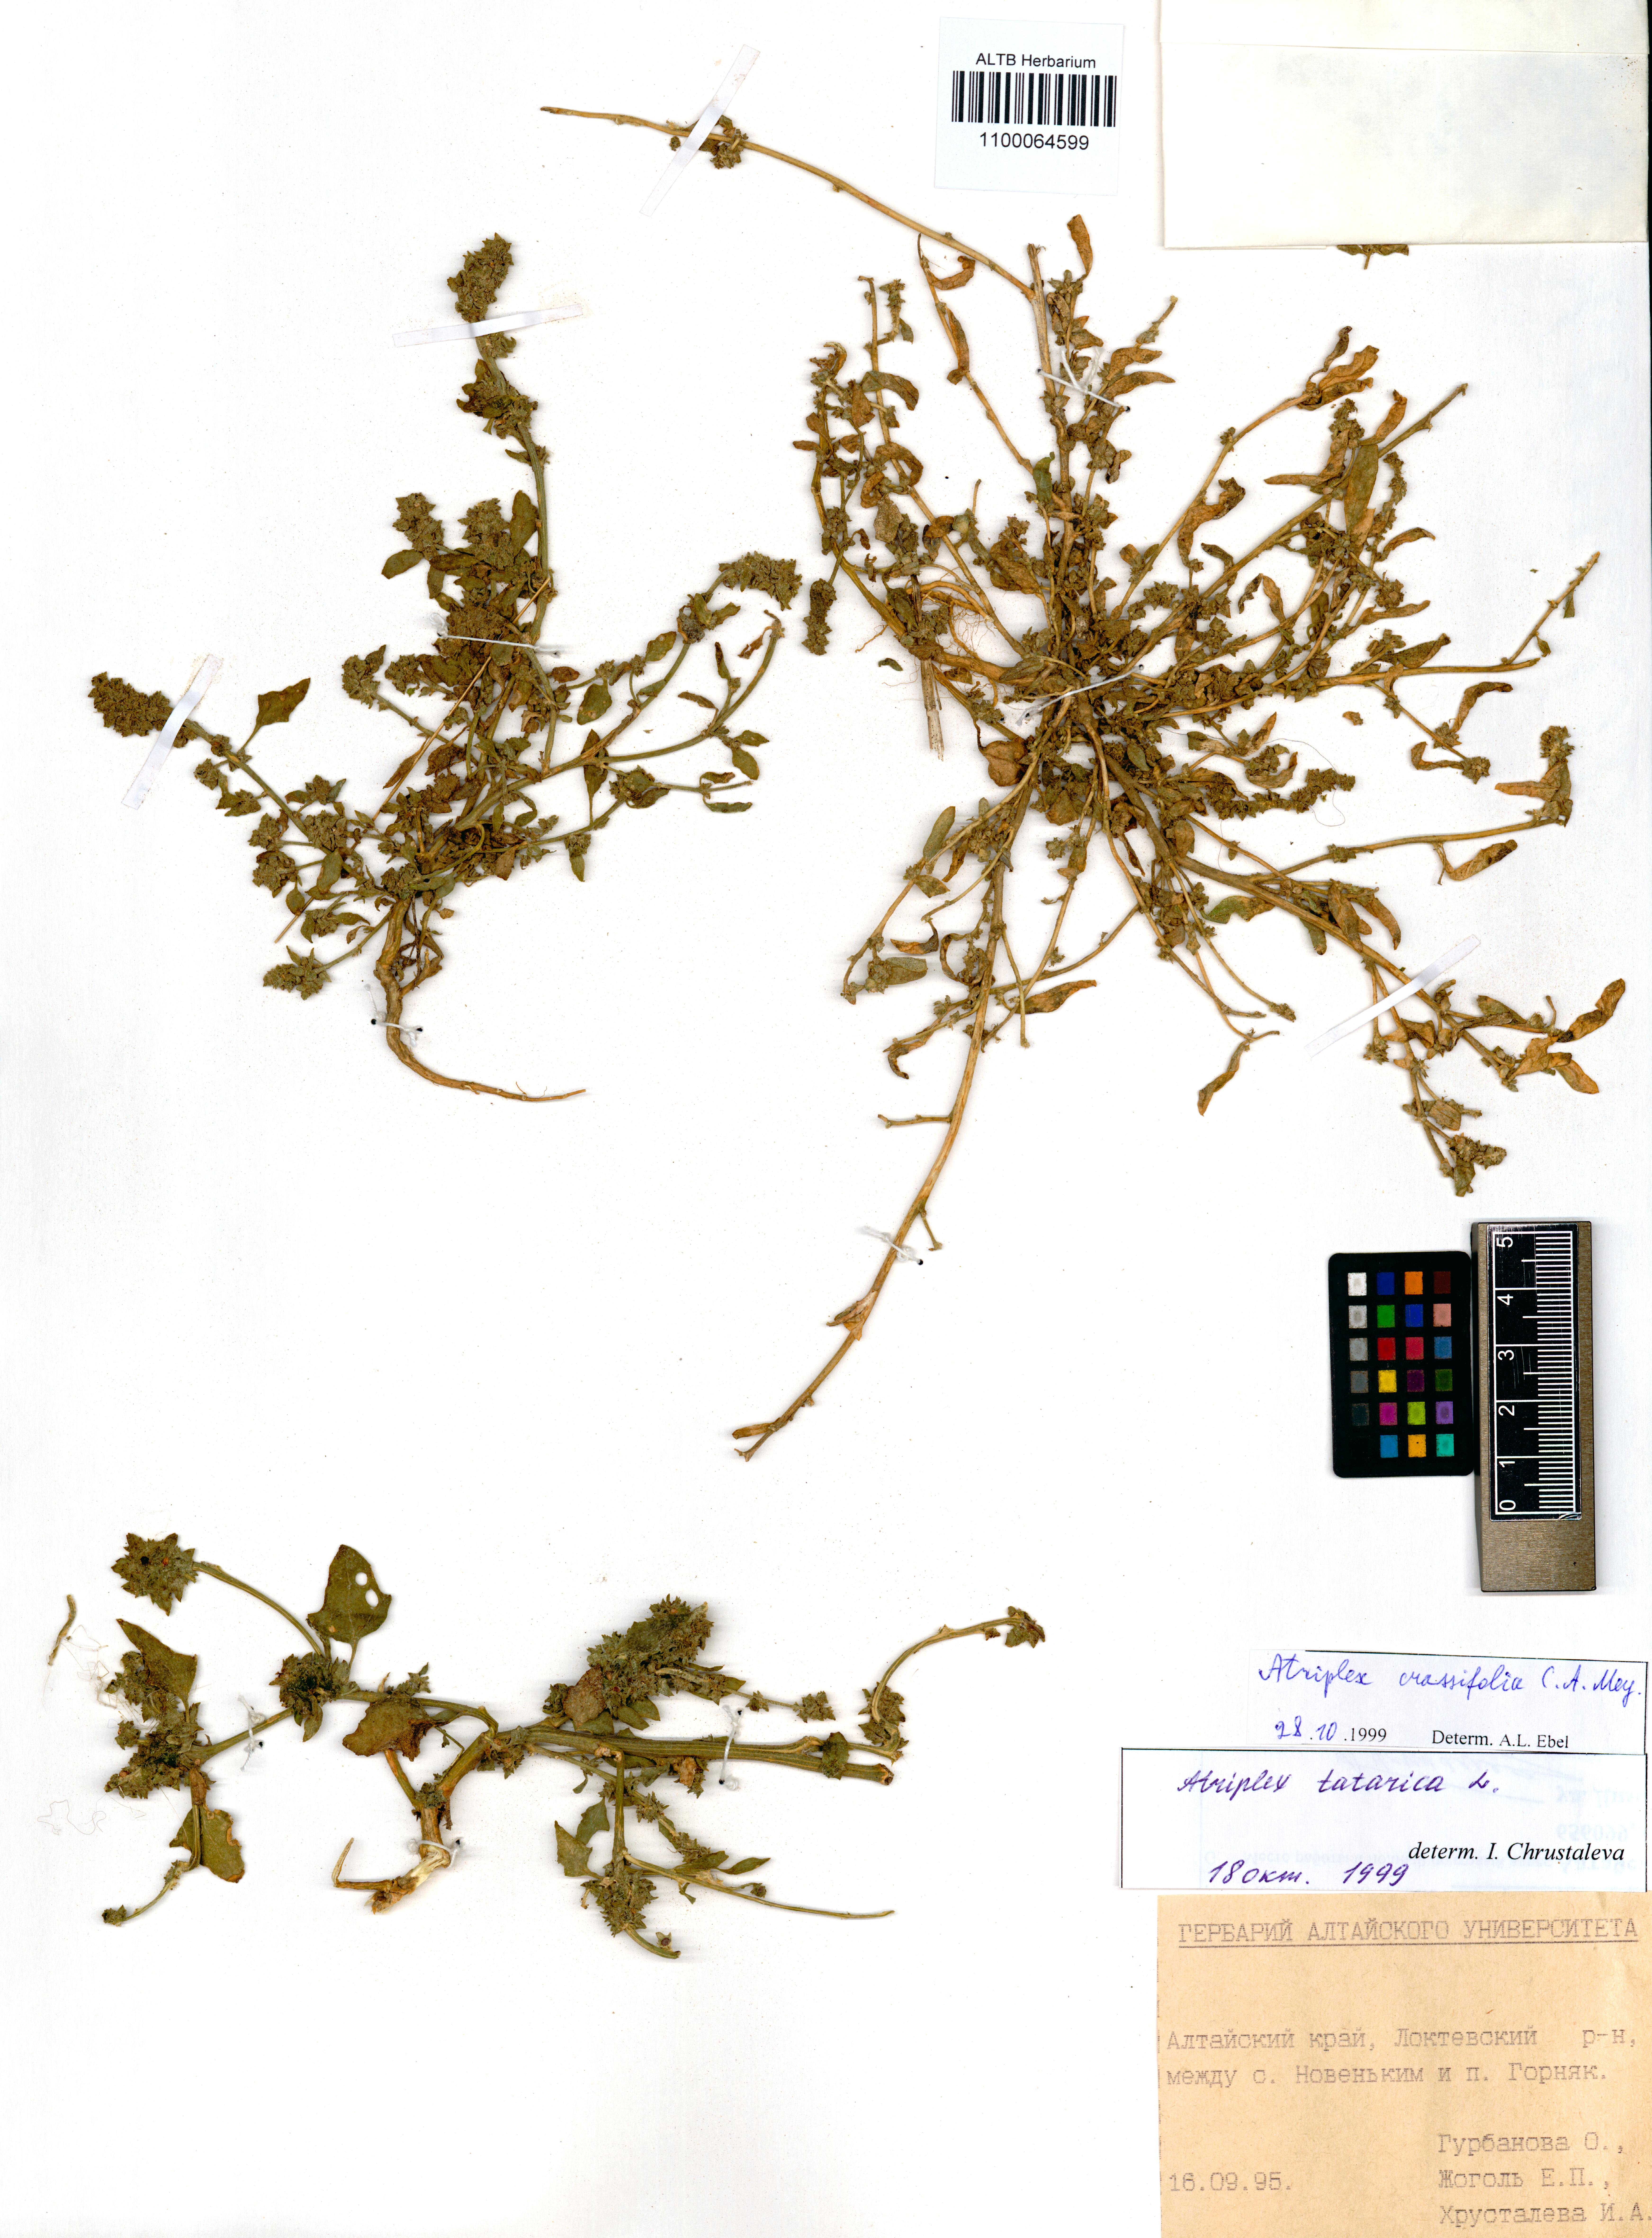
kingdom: Plantae
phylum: Tracheophyta
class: Magnoliopsida
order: Caryophyllales
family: Amaranthaceae
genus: Atriplex
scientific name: Atriplex crassifolia
